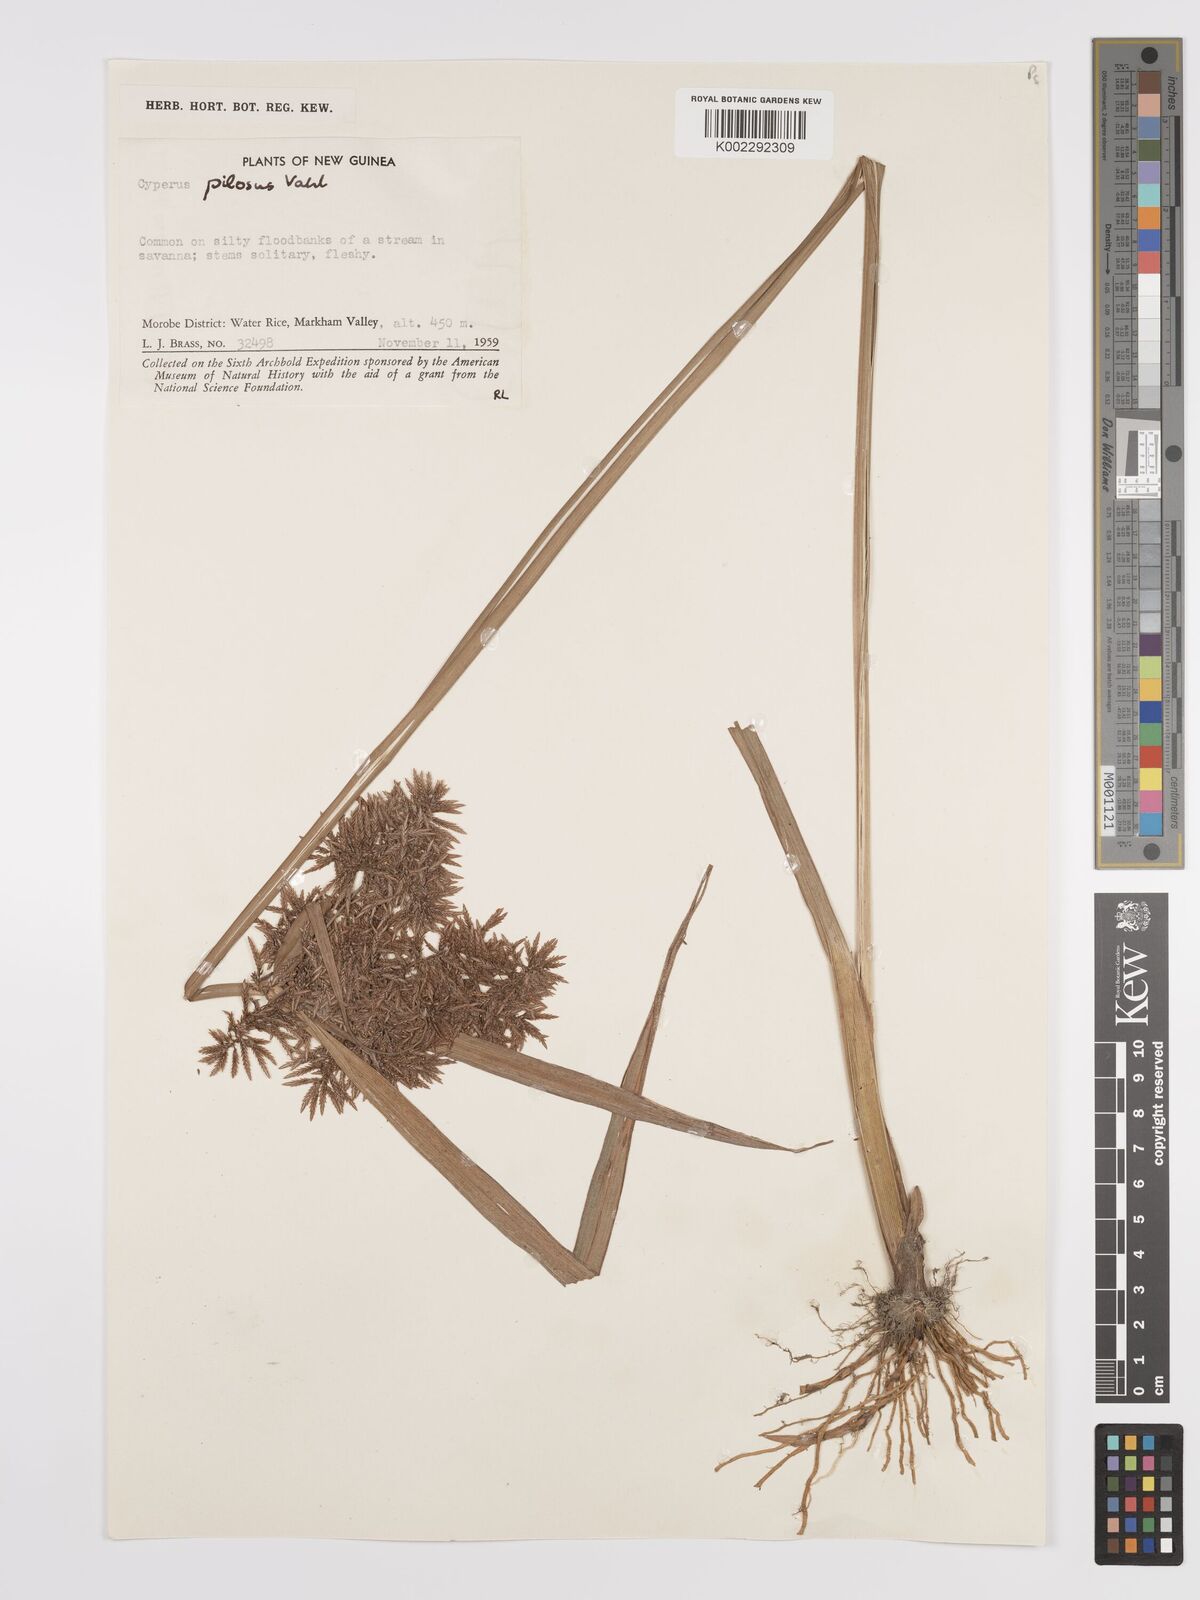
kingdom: Plantae
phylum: Tracheophyta
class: Liliopsida
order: Poales
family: Cyperaceae
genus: Cyperus
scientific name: Cyperus pilosus
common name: Fuzzy flatsedge
